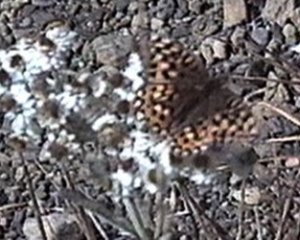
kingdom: Animalia
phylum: Arthropoda
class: Insecta
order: Lepidoptera
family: Nymphalidae
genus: Speyeria
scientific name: Speyeria zerene
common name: Zerene Fritillary
